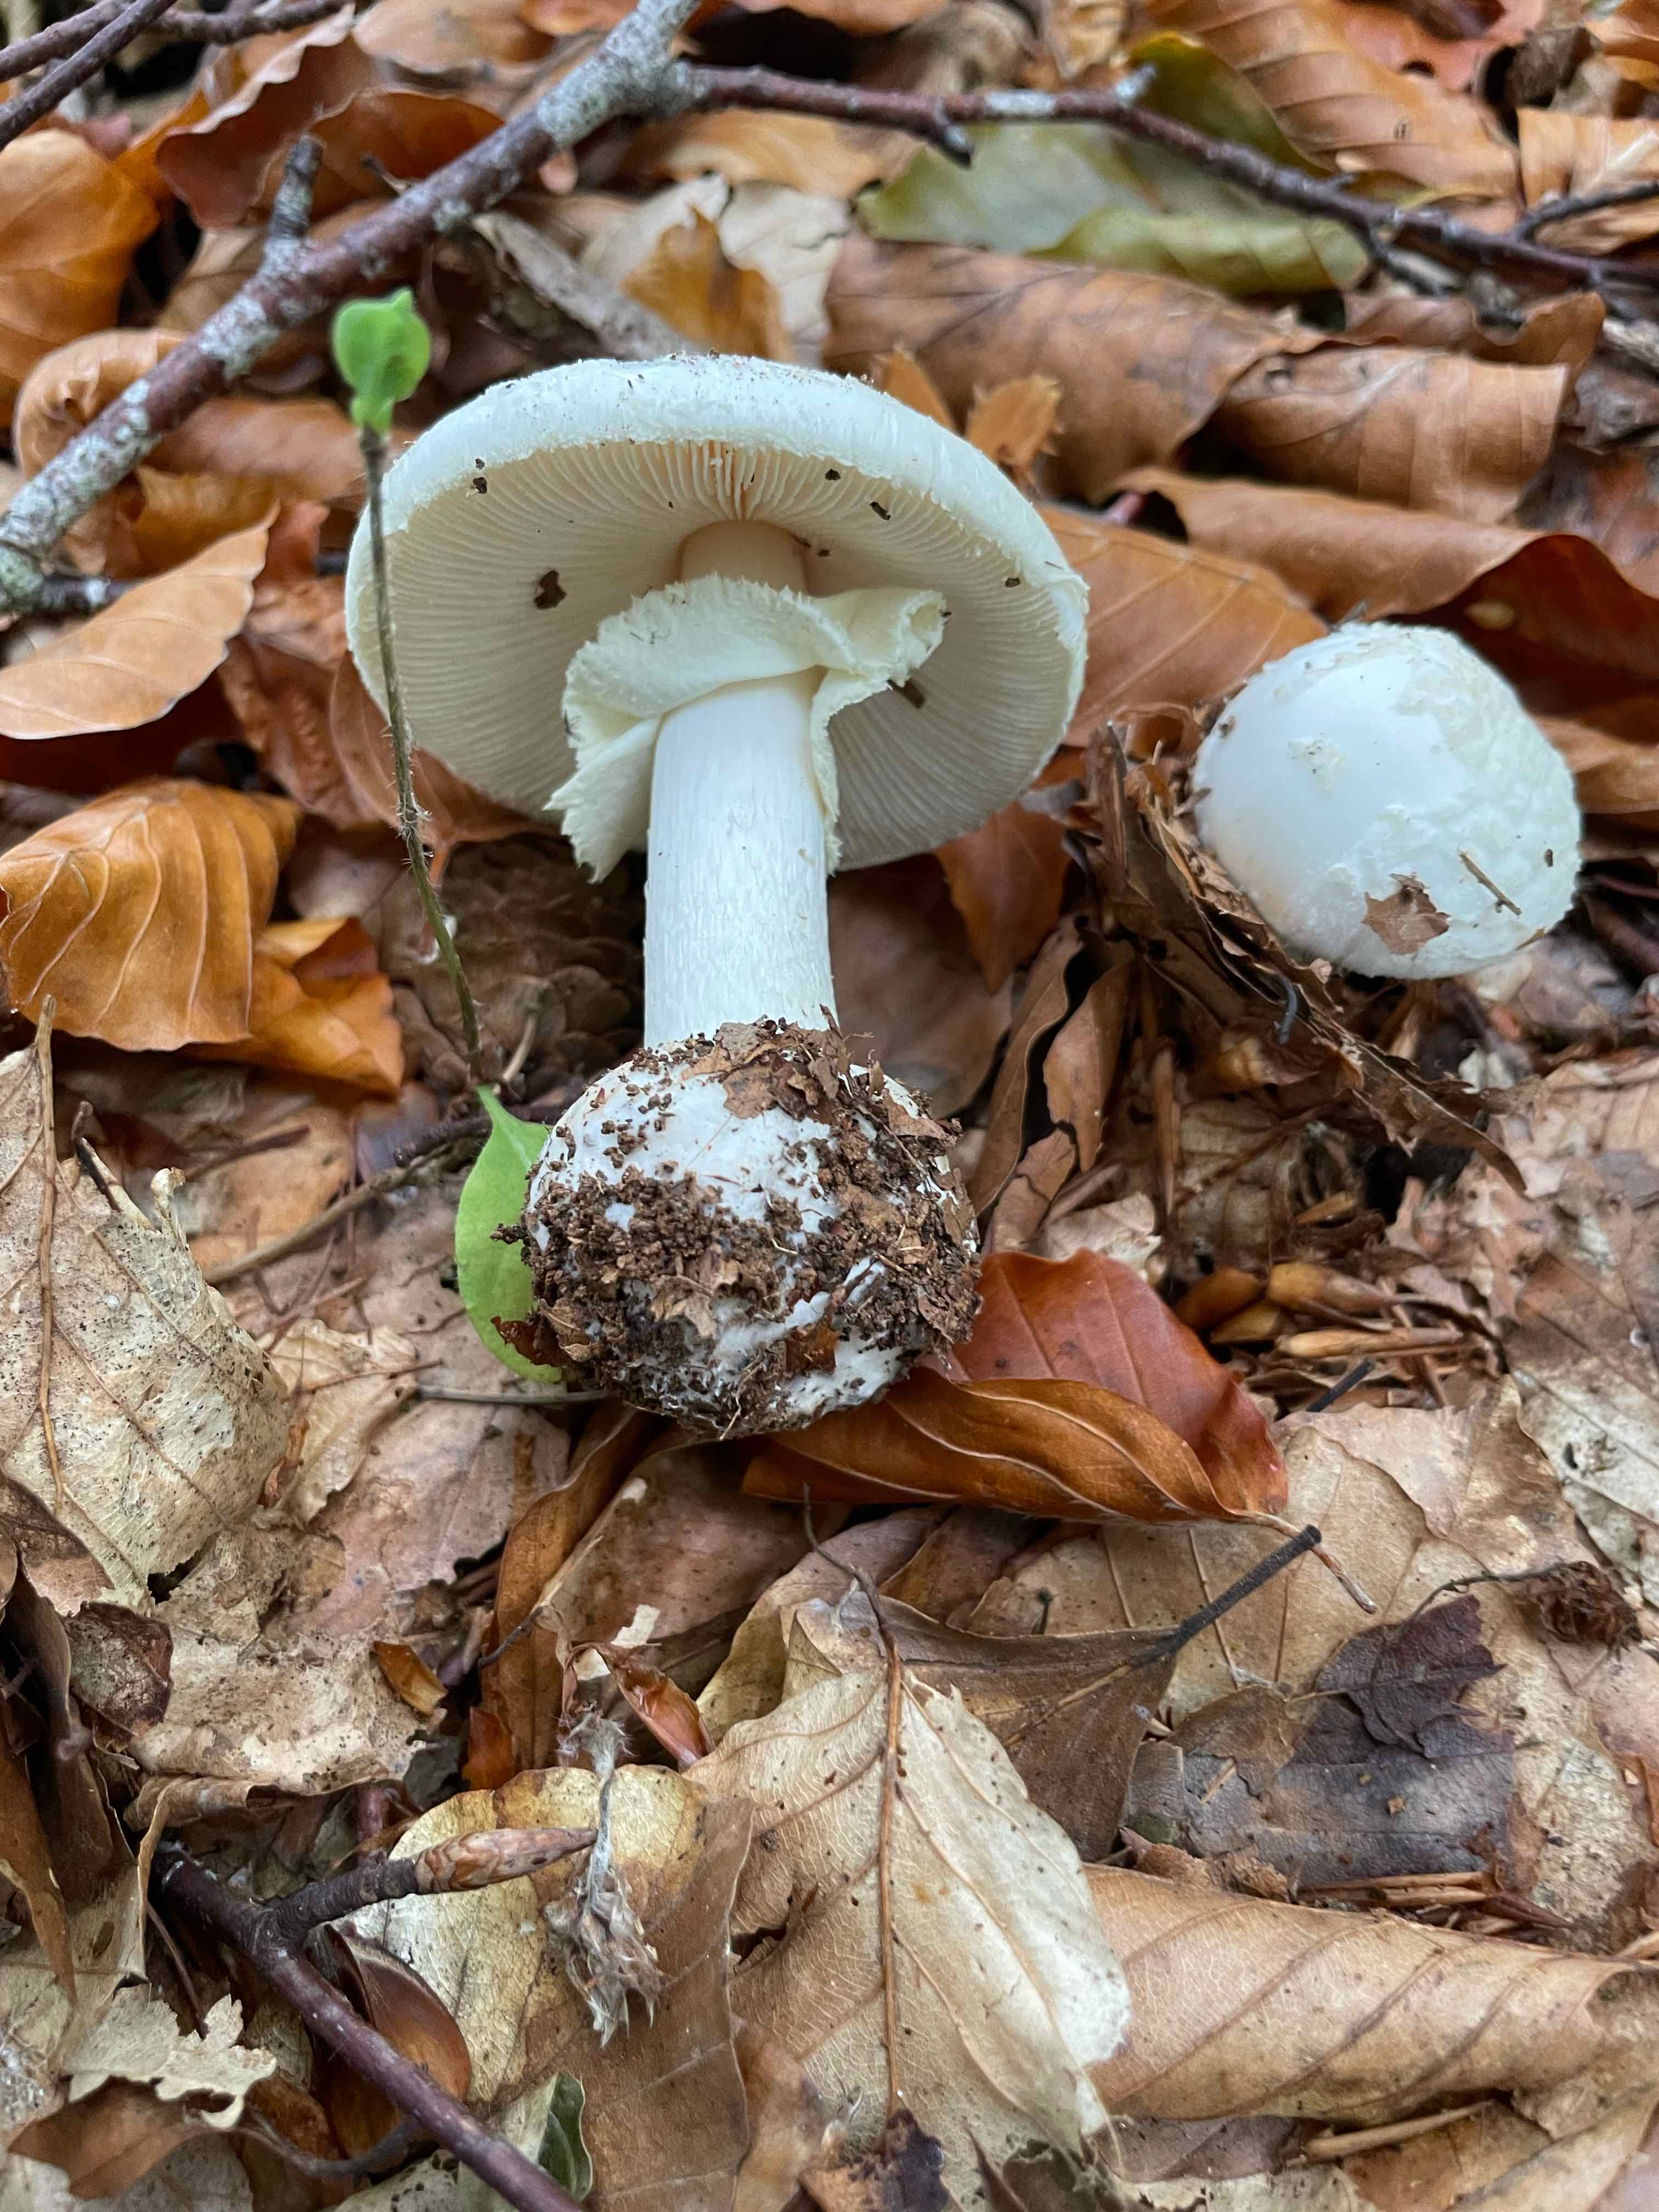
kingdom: Fungi
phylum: Basidiomycota
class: Agaricomycetes
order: Agaricales
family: Amanitaceae
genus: Amanita
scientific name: Amanita citrina
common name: False death-cap
